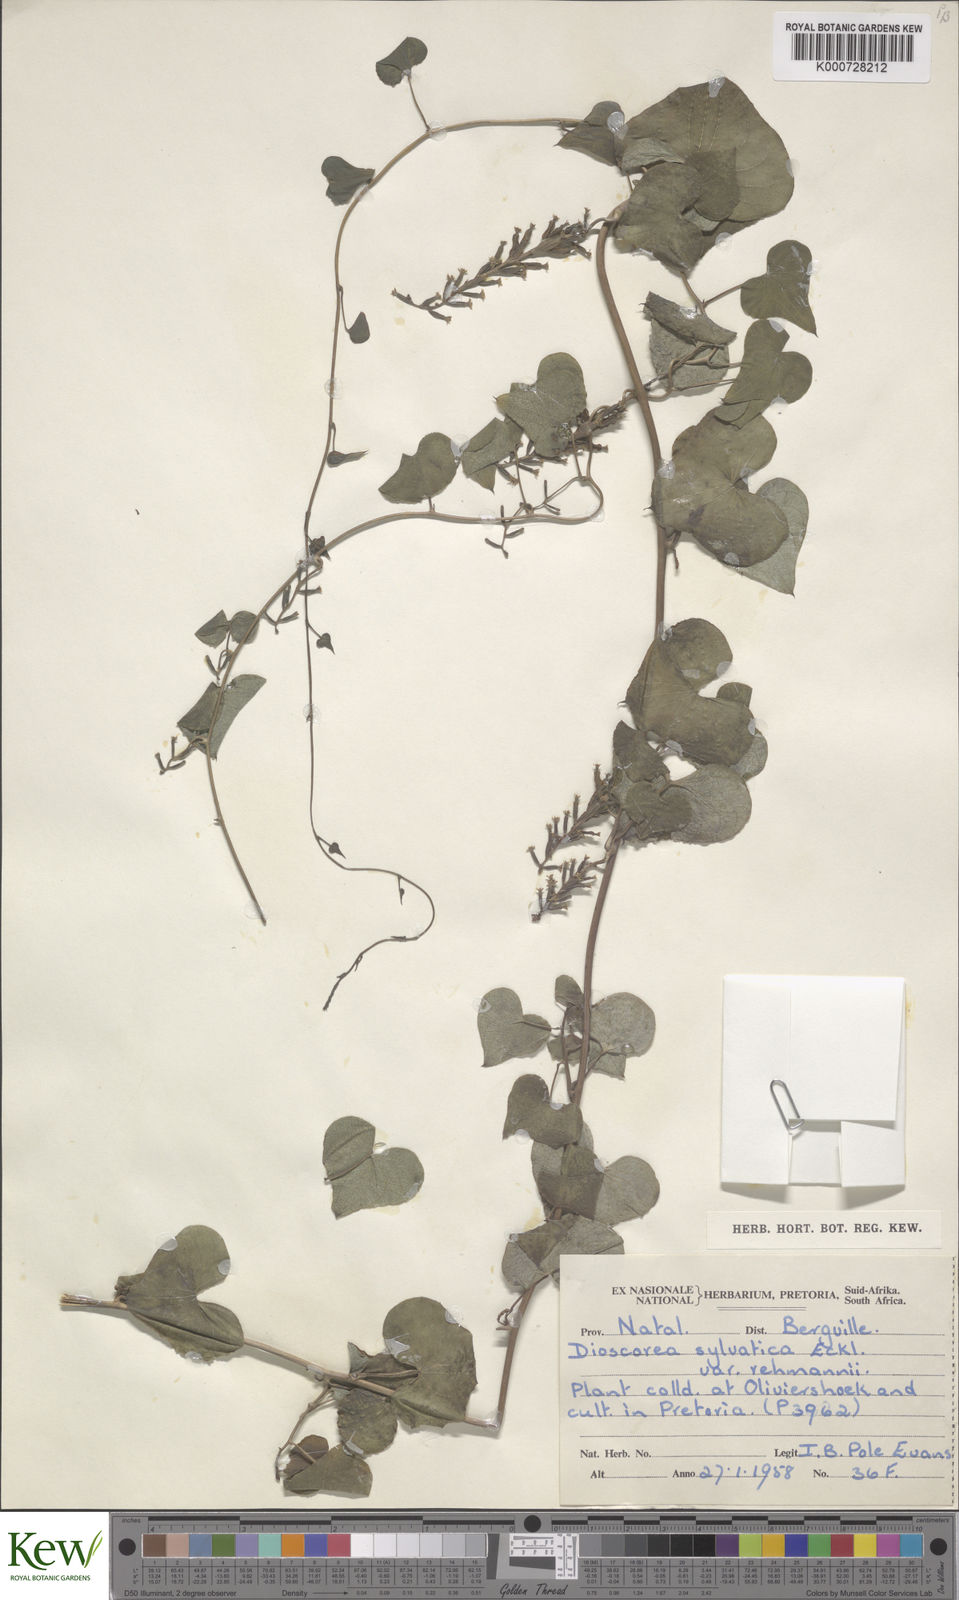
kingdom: Plantae
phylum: Tracheophyta
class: Liliopsida
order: Dioscoreales
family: Dioscoreaceae
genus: Dioscorea
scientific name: Dioscorea sylvatica
